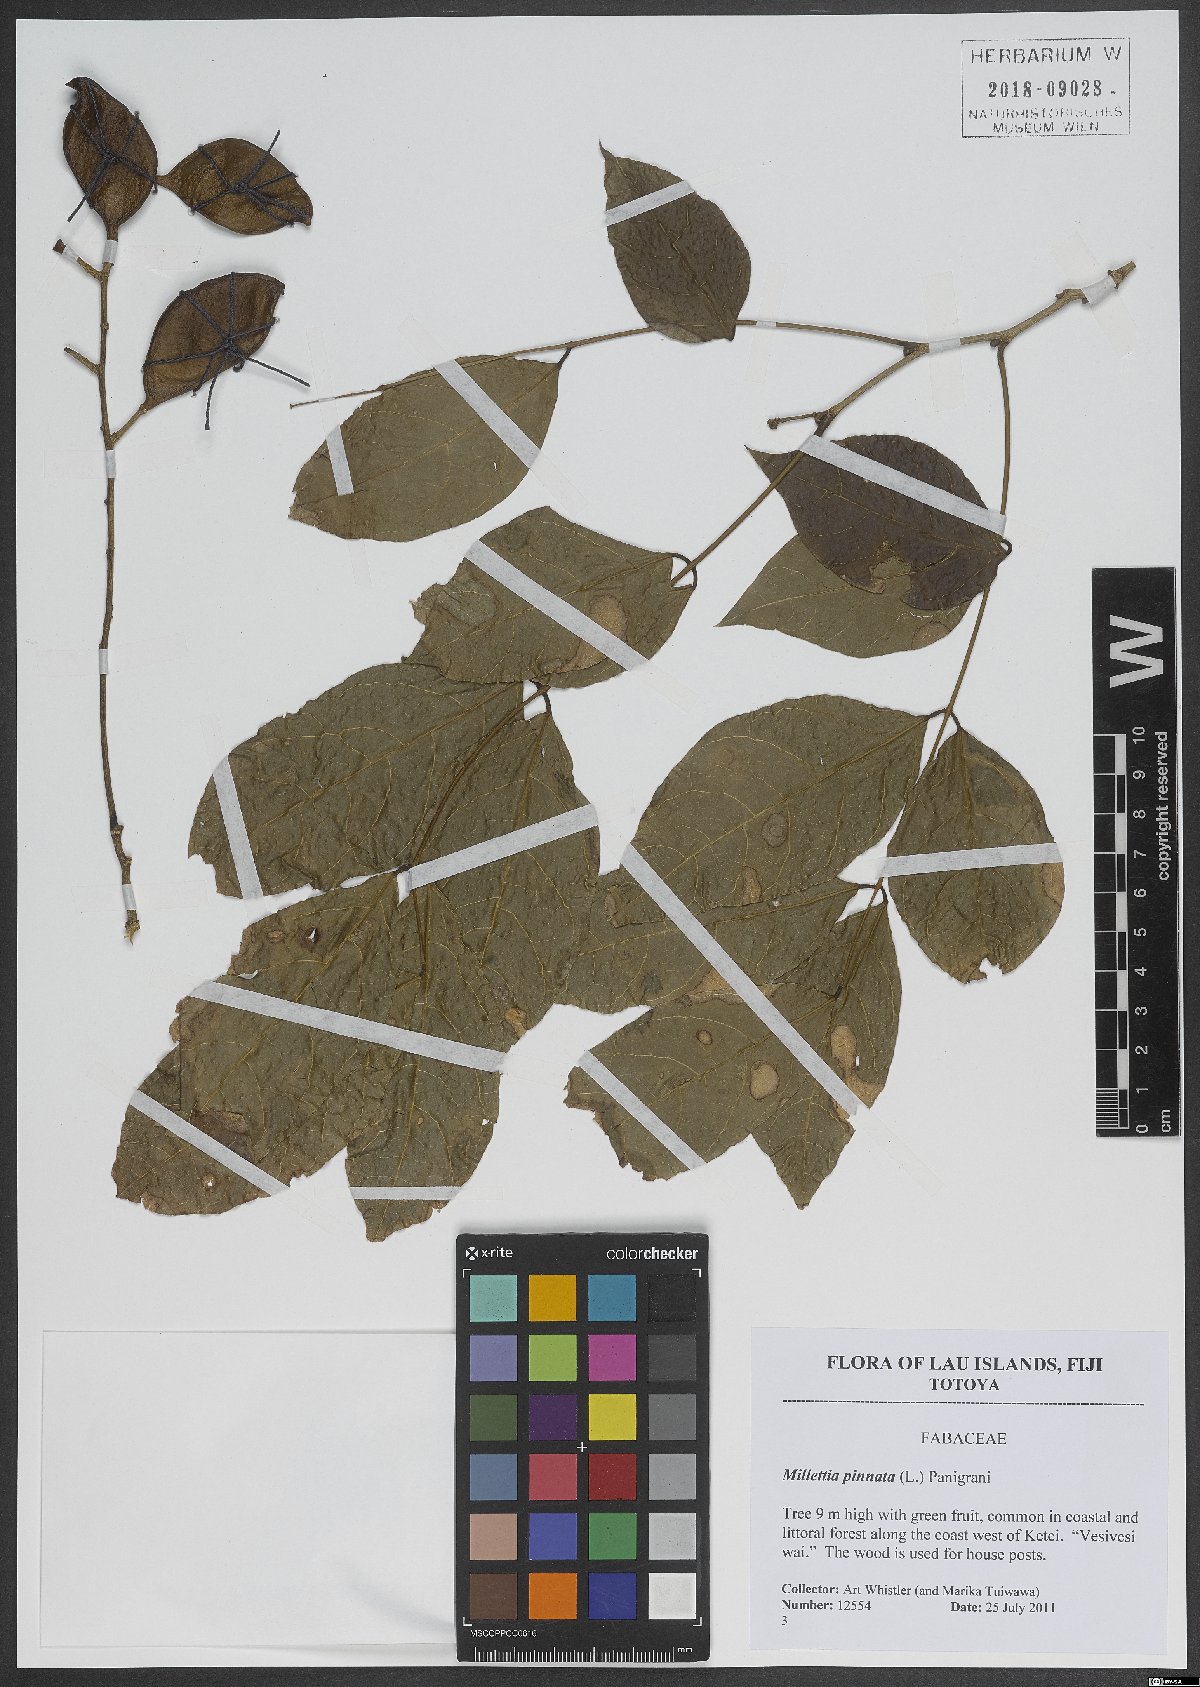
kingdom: Plantae
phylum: Tracheophyta
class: Magnoliopsida
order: Fabales
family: Fabaceae
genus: Pongamia
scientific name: Pongamia pinnata
